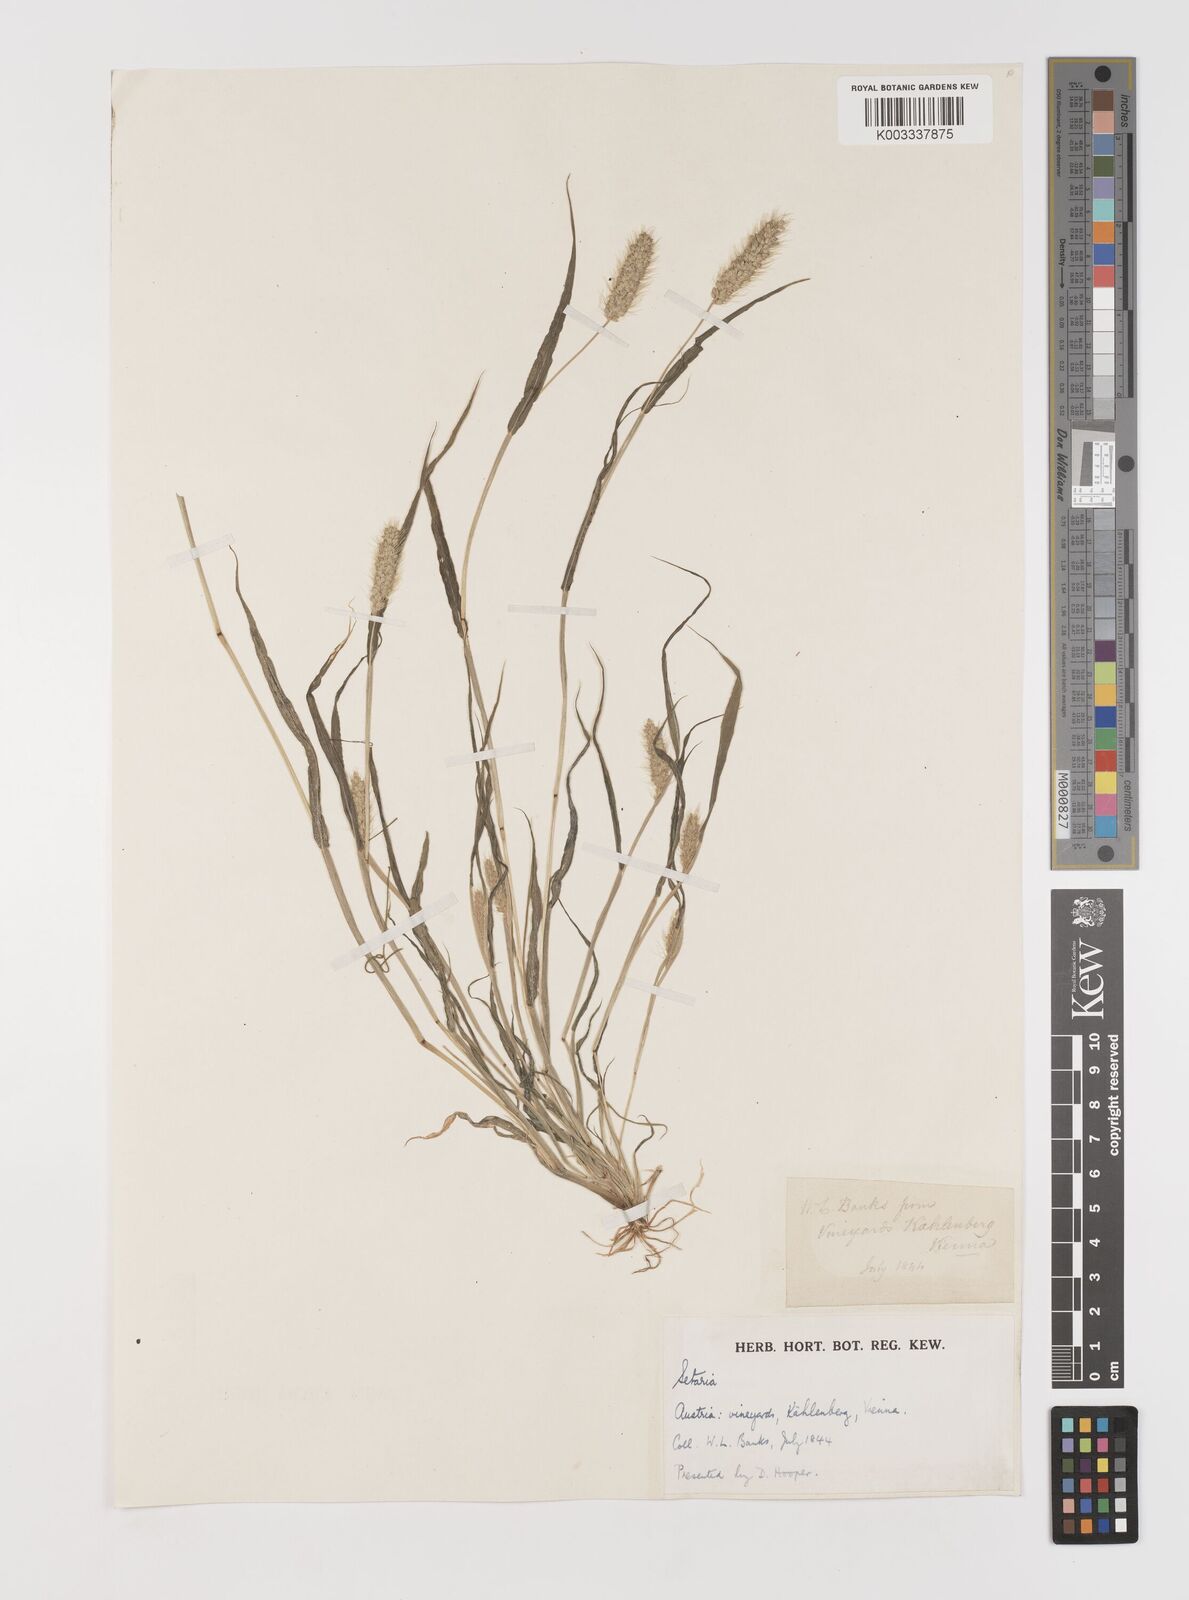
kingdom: Plantae
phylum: Tracheophyta
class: Liliopsida
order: Poales
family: Poaceae
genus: Setaria
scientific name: Setaria viridis
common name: Green bristlegrass
